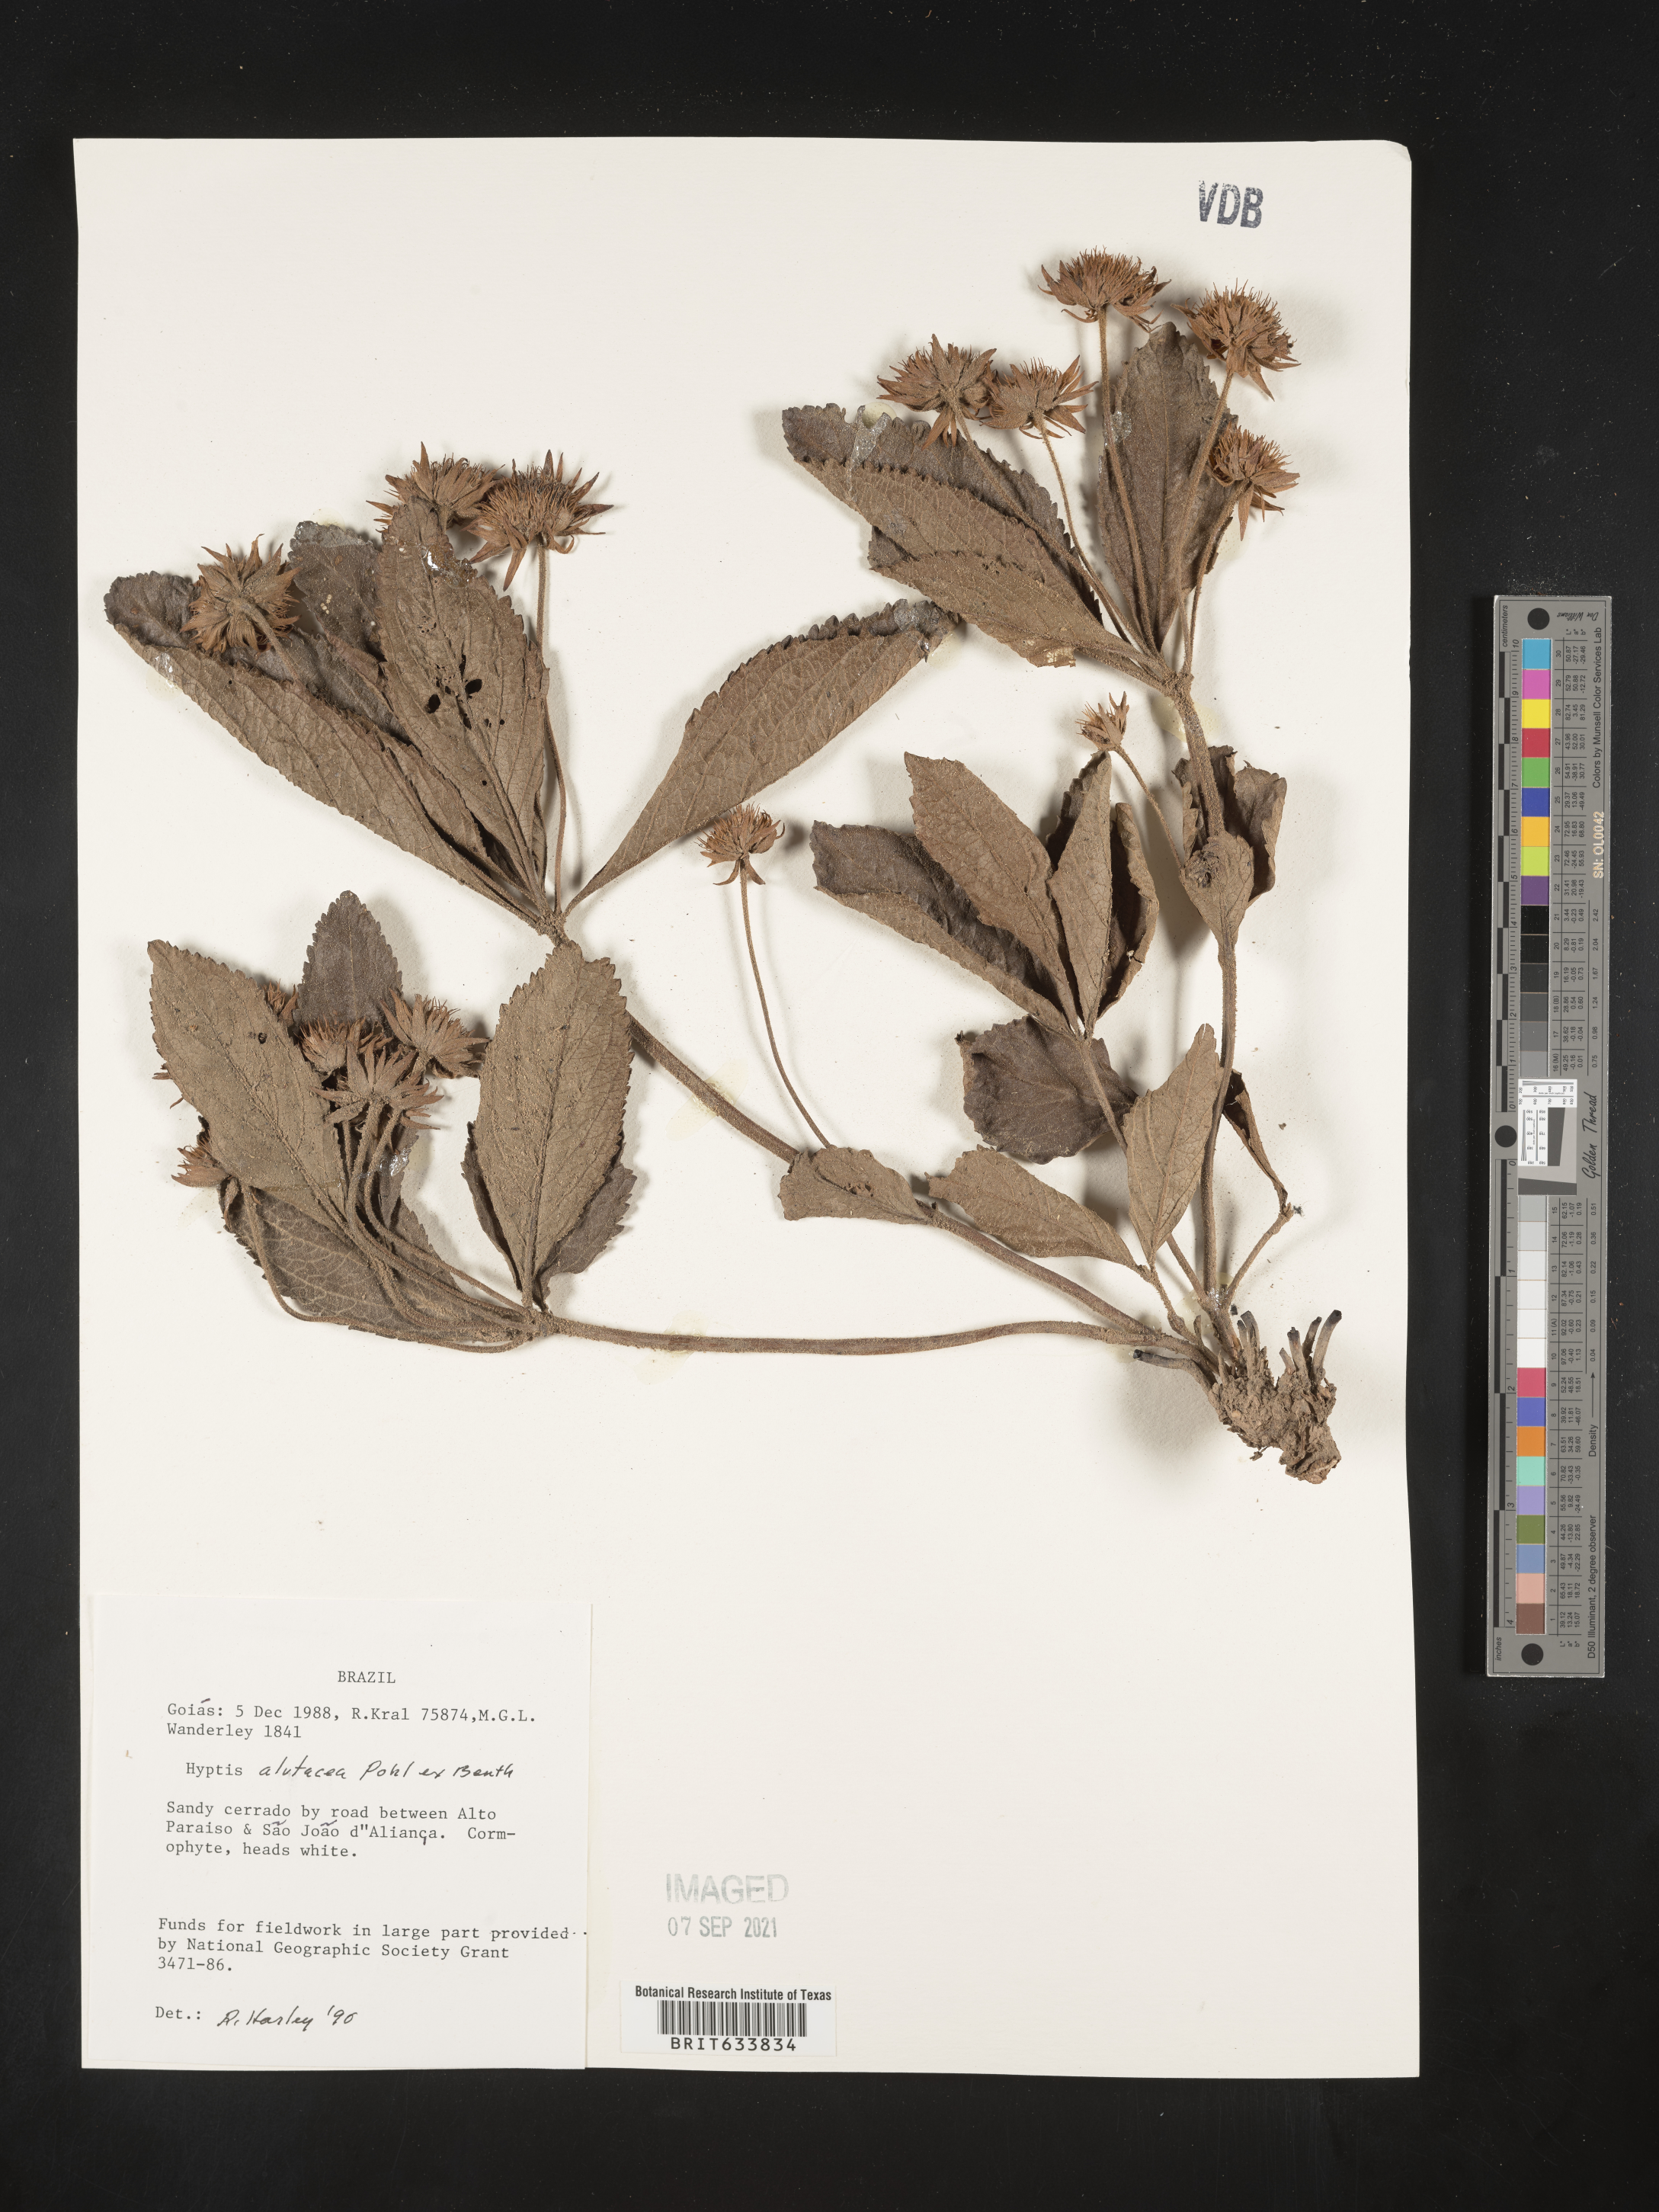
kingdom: Plantae
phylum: Tracheophyta
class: Magnoliopsida
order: Lamiales
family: Lamiaceae
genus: Hyptis
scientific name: Hyptis
